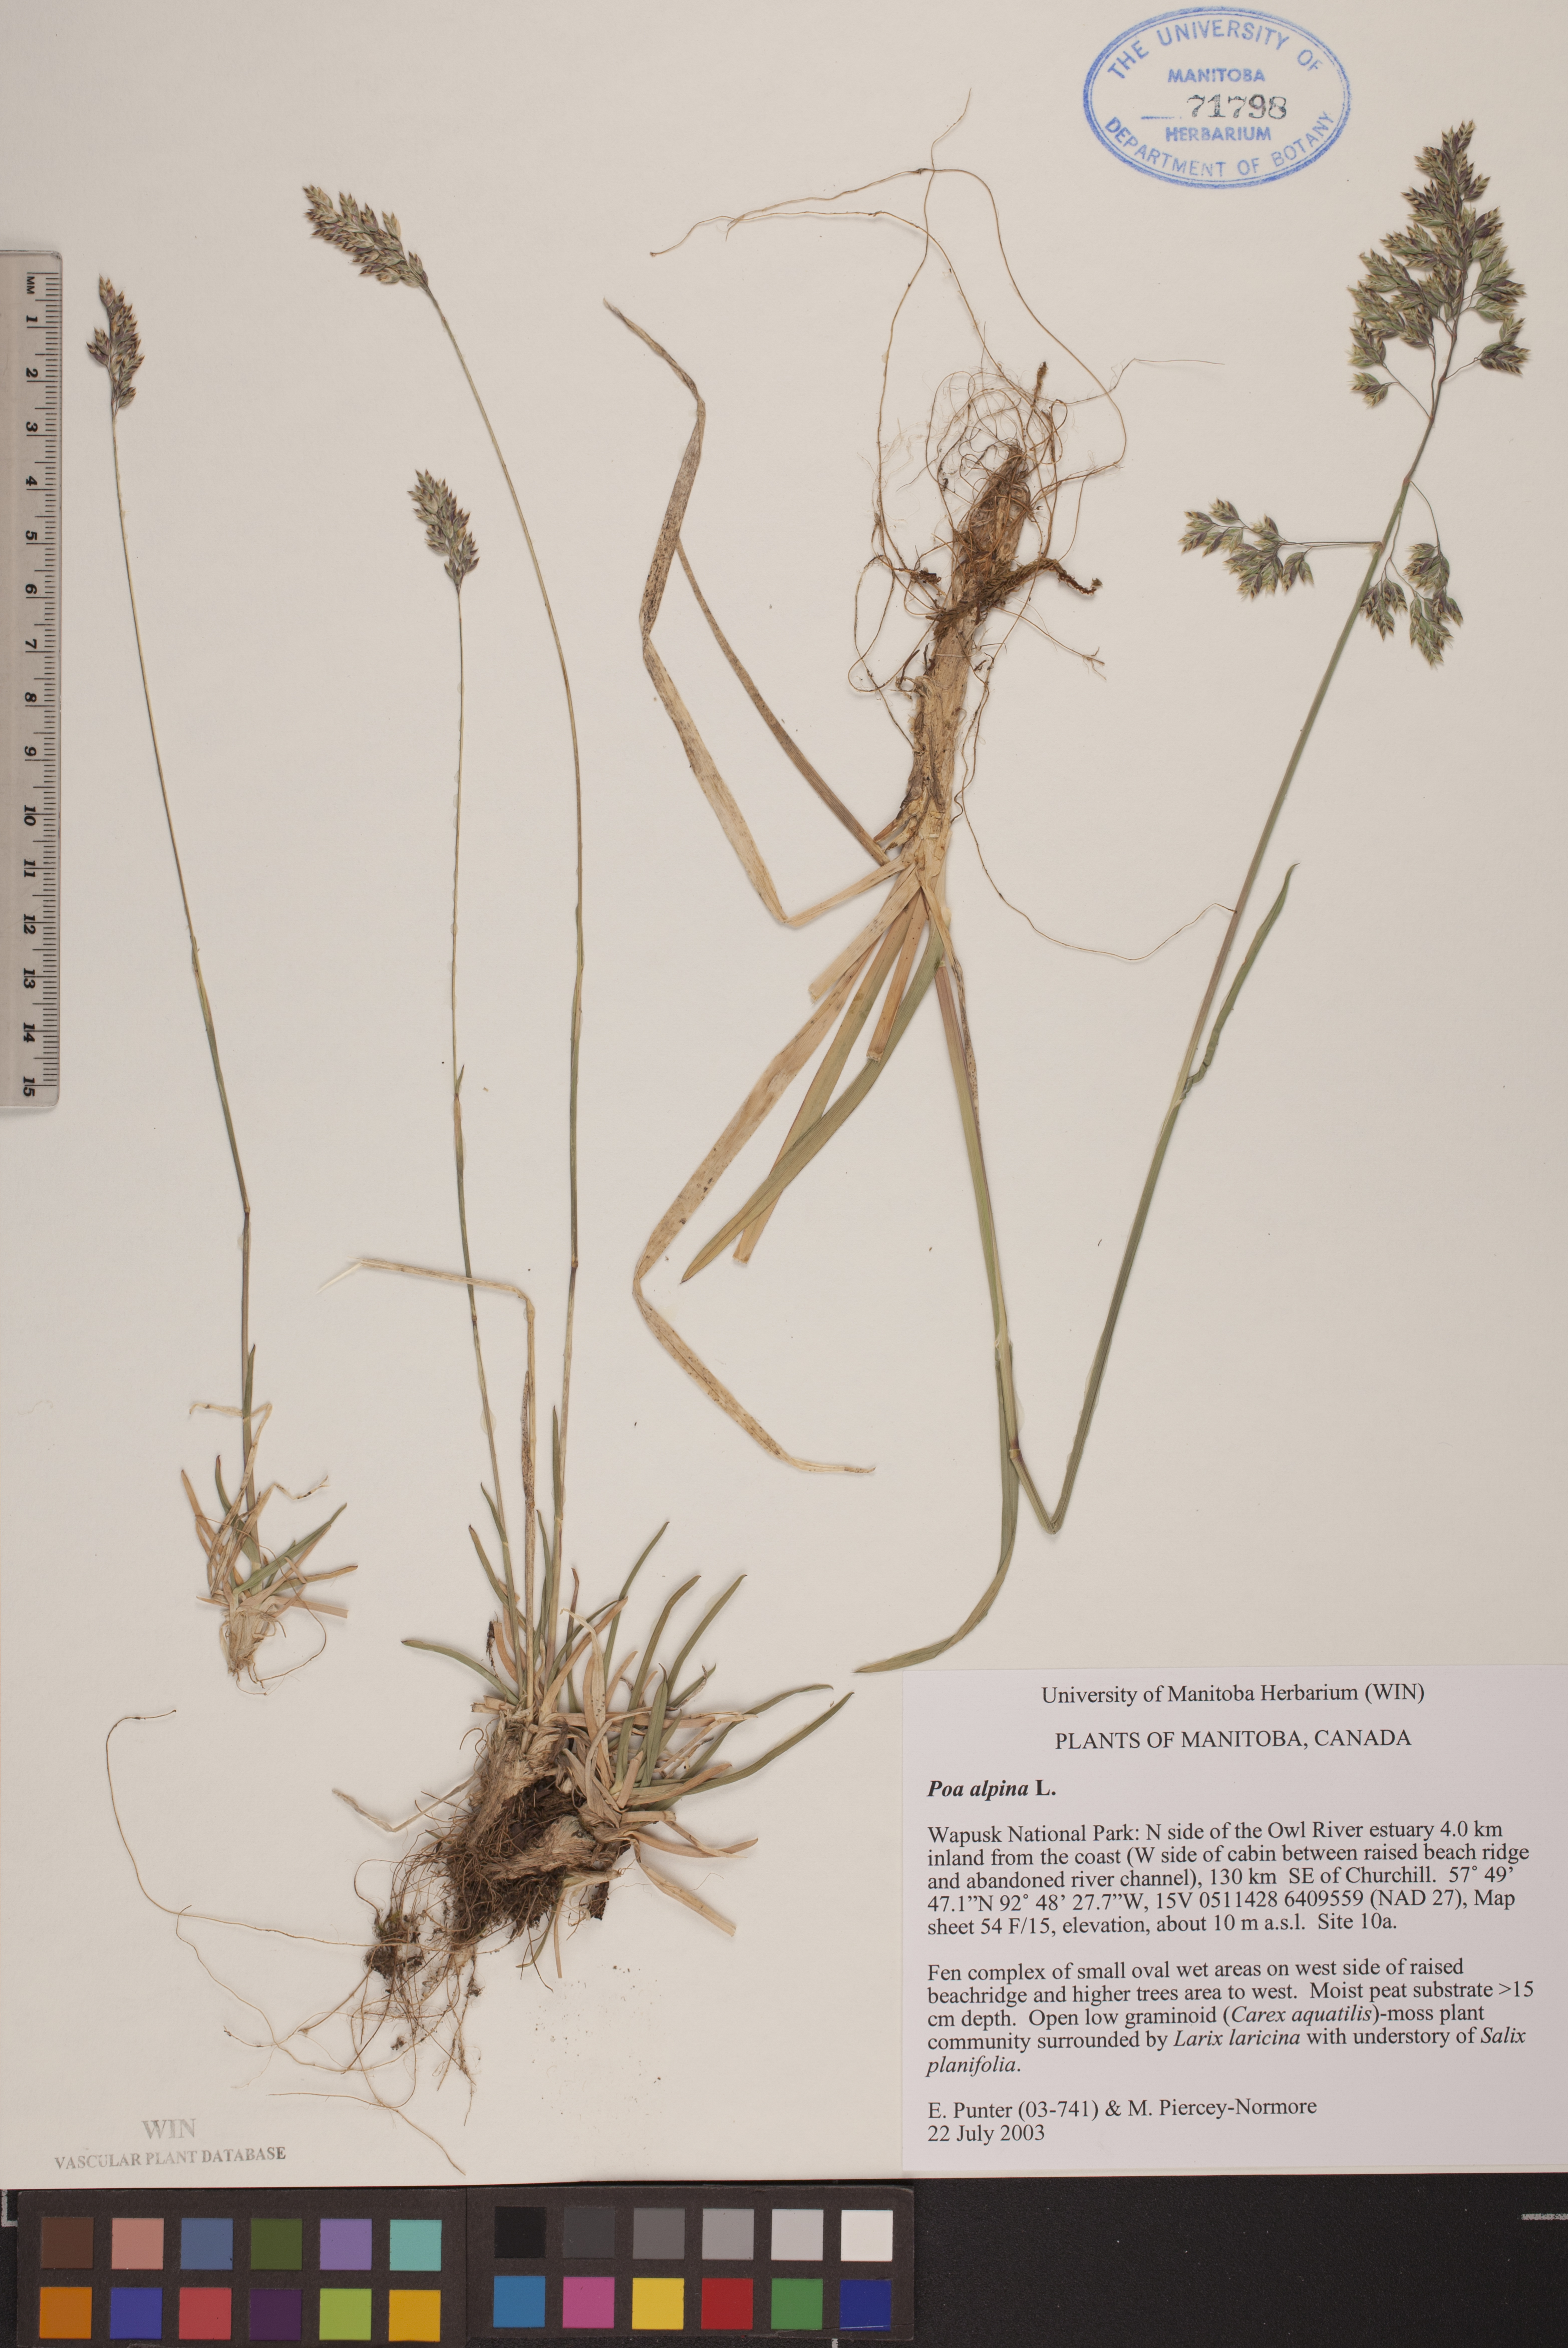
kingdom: Plantae
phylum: Tracheophyta
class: Liliopsida
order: Poales
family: Poaceae
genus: Poa
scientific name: Poa alpina
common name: Alpine bluegrass
